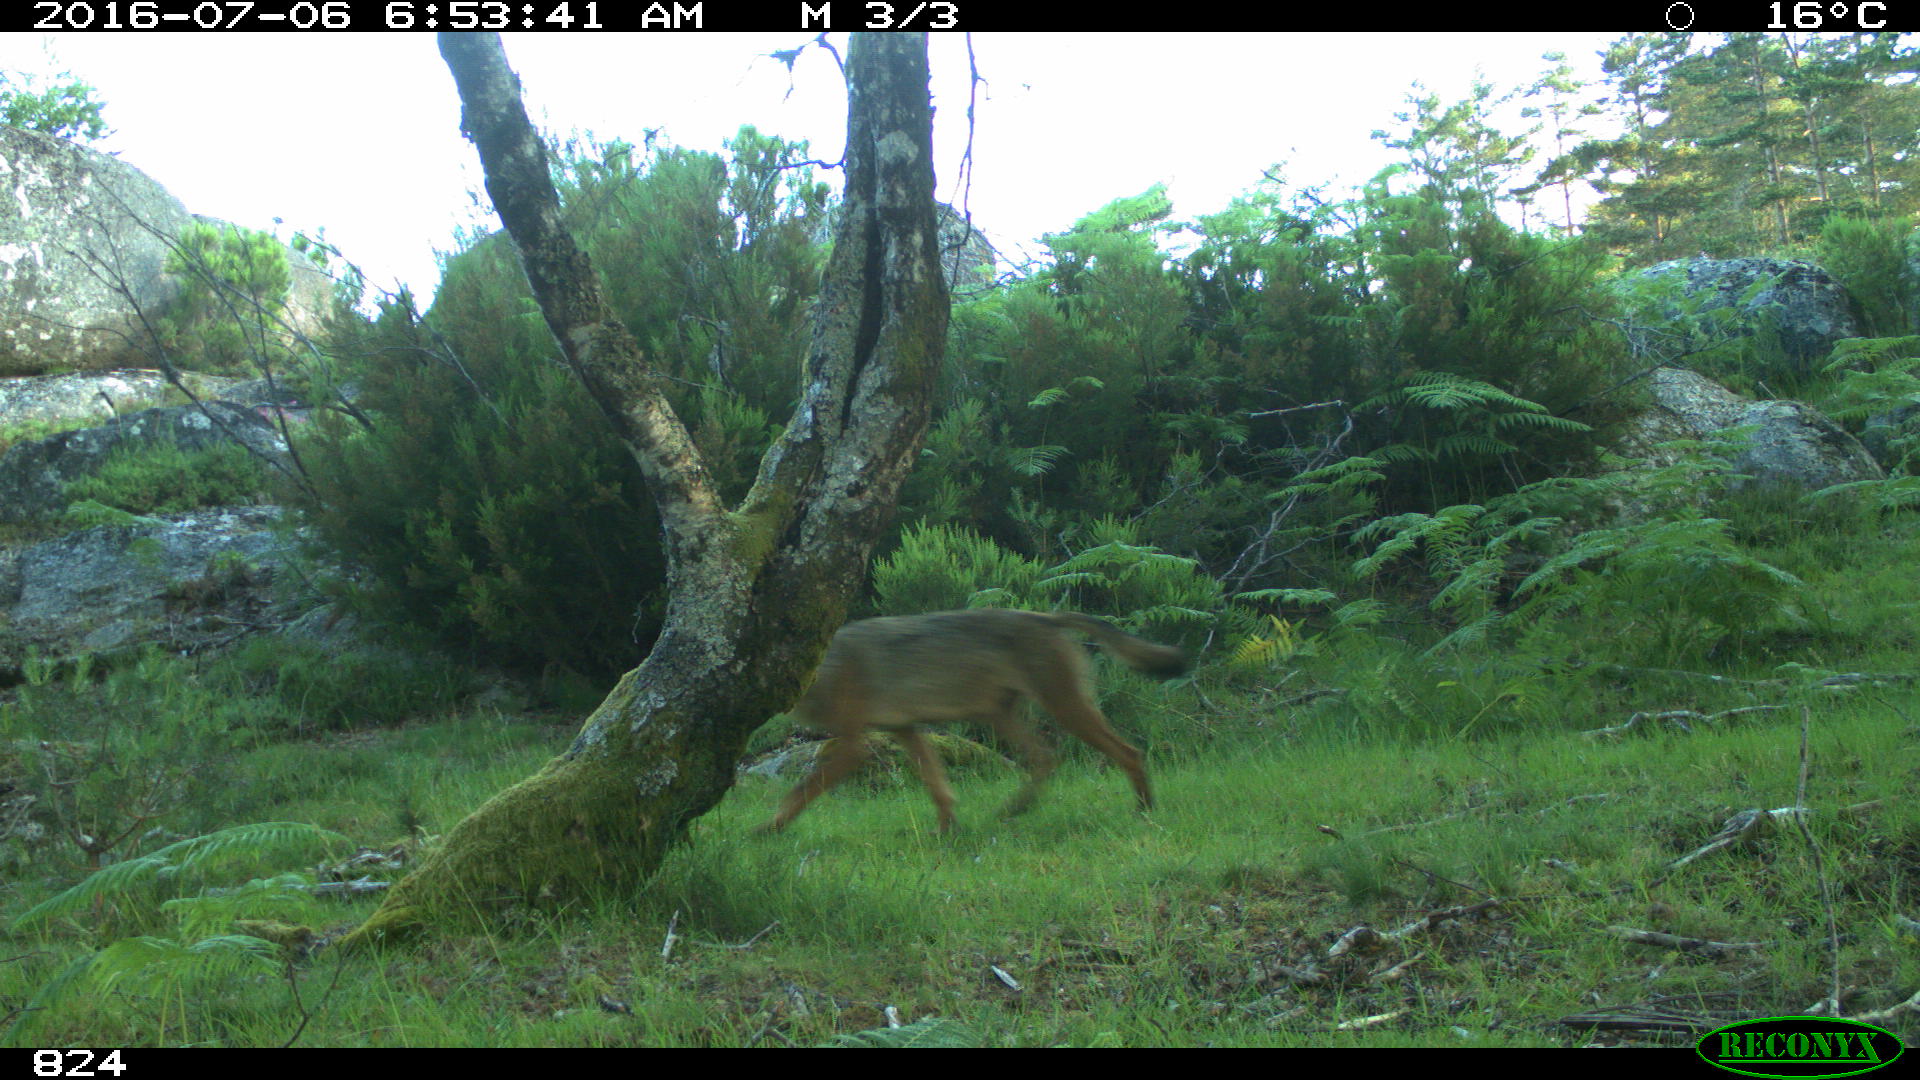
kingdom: Animalia
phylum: Chordata
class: Mammalia
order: Carnivora
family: Canidae
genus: Canis
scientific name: Canis lupus
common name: Gray wolf
